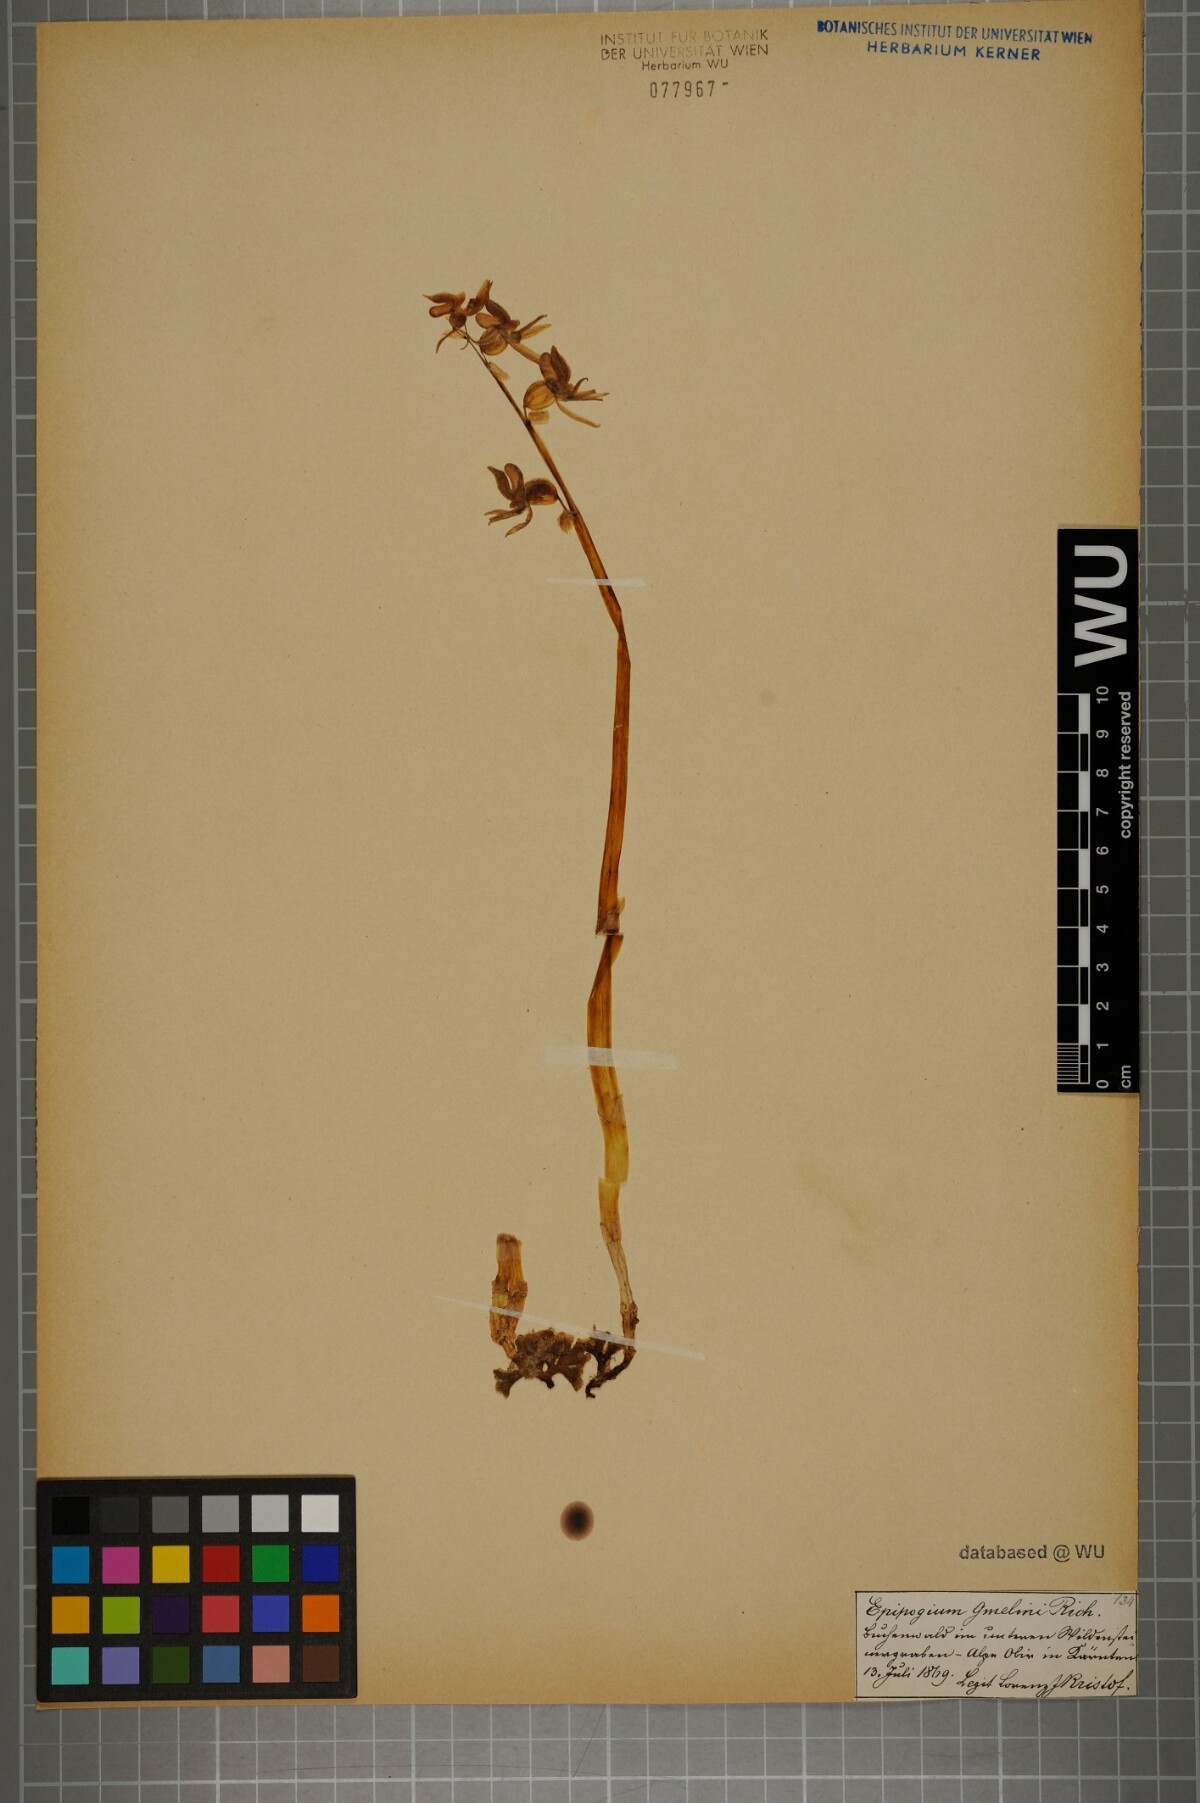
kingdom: Plantae
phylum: Tracheophyta
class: Liliopsida
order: Asparagales
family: Orchidaceae
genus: Epipogium
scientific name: Epipogium aphyllum
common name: Ghost orchid
